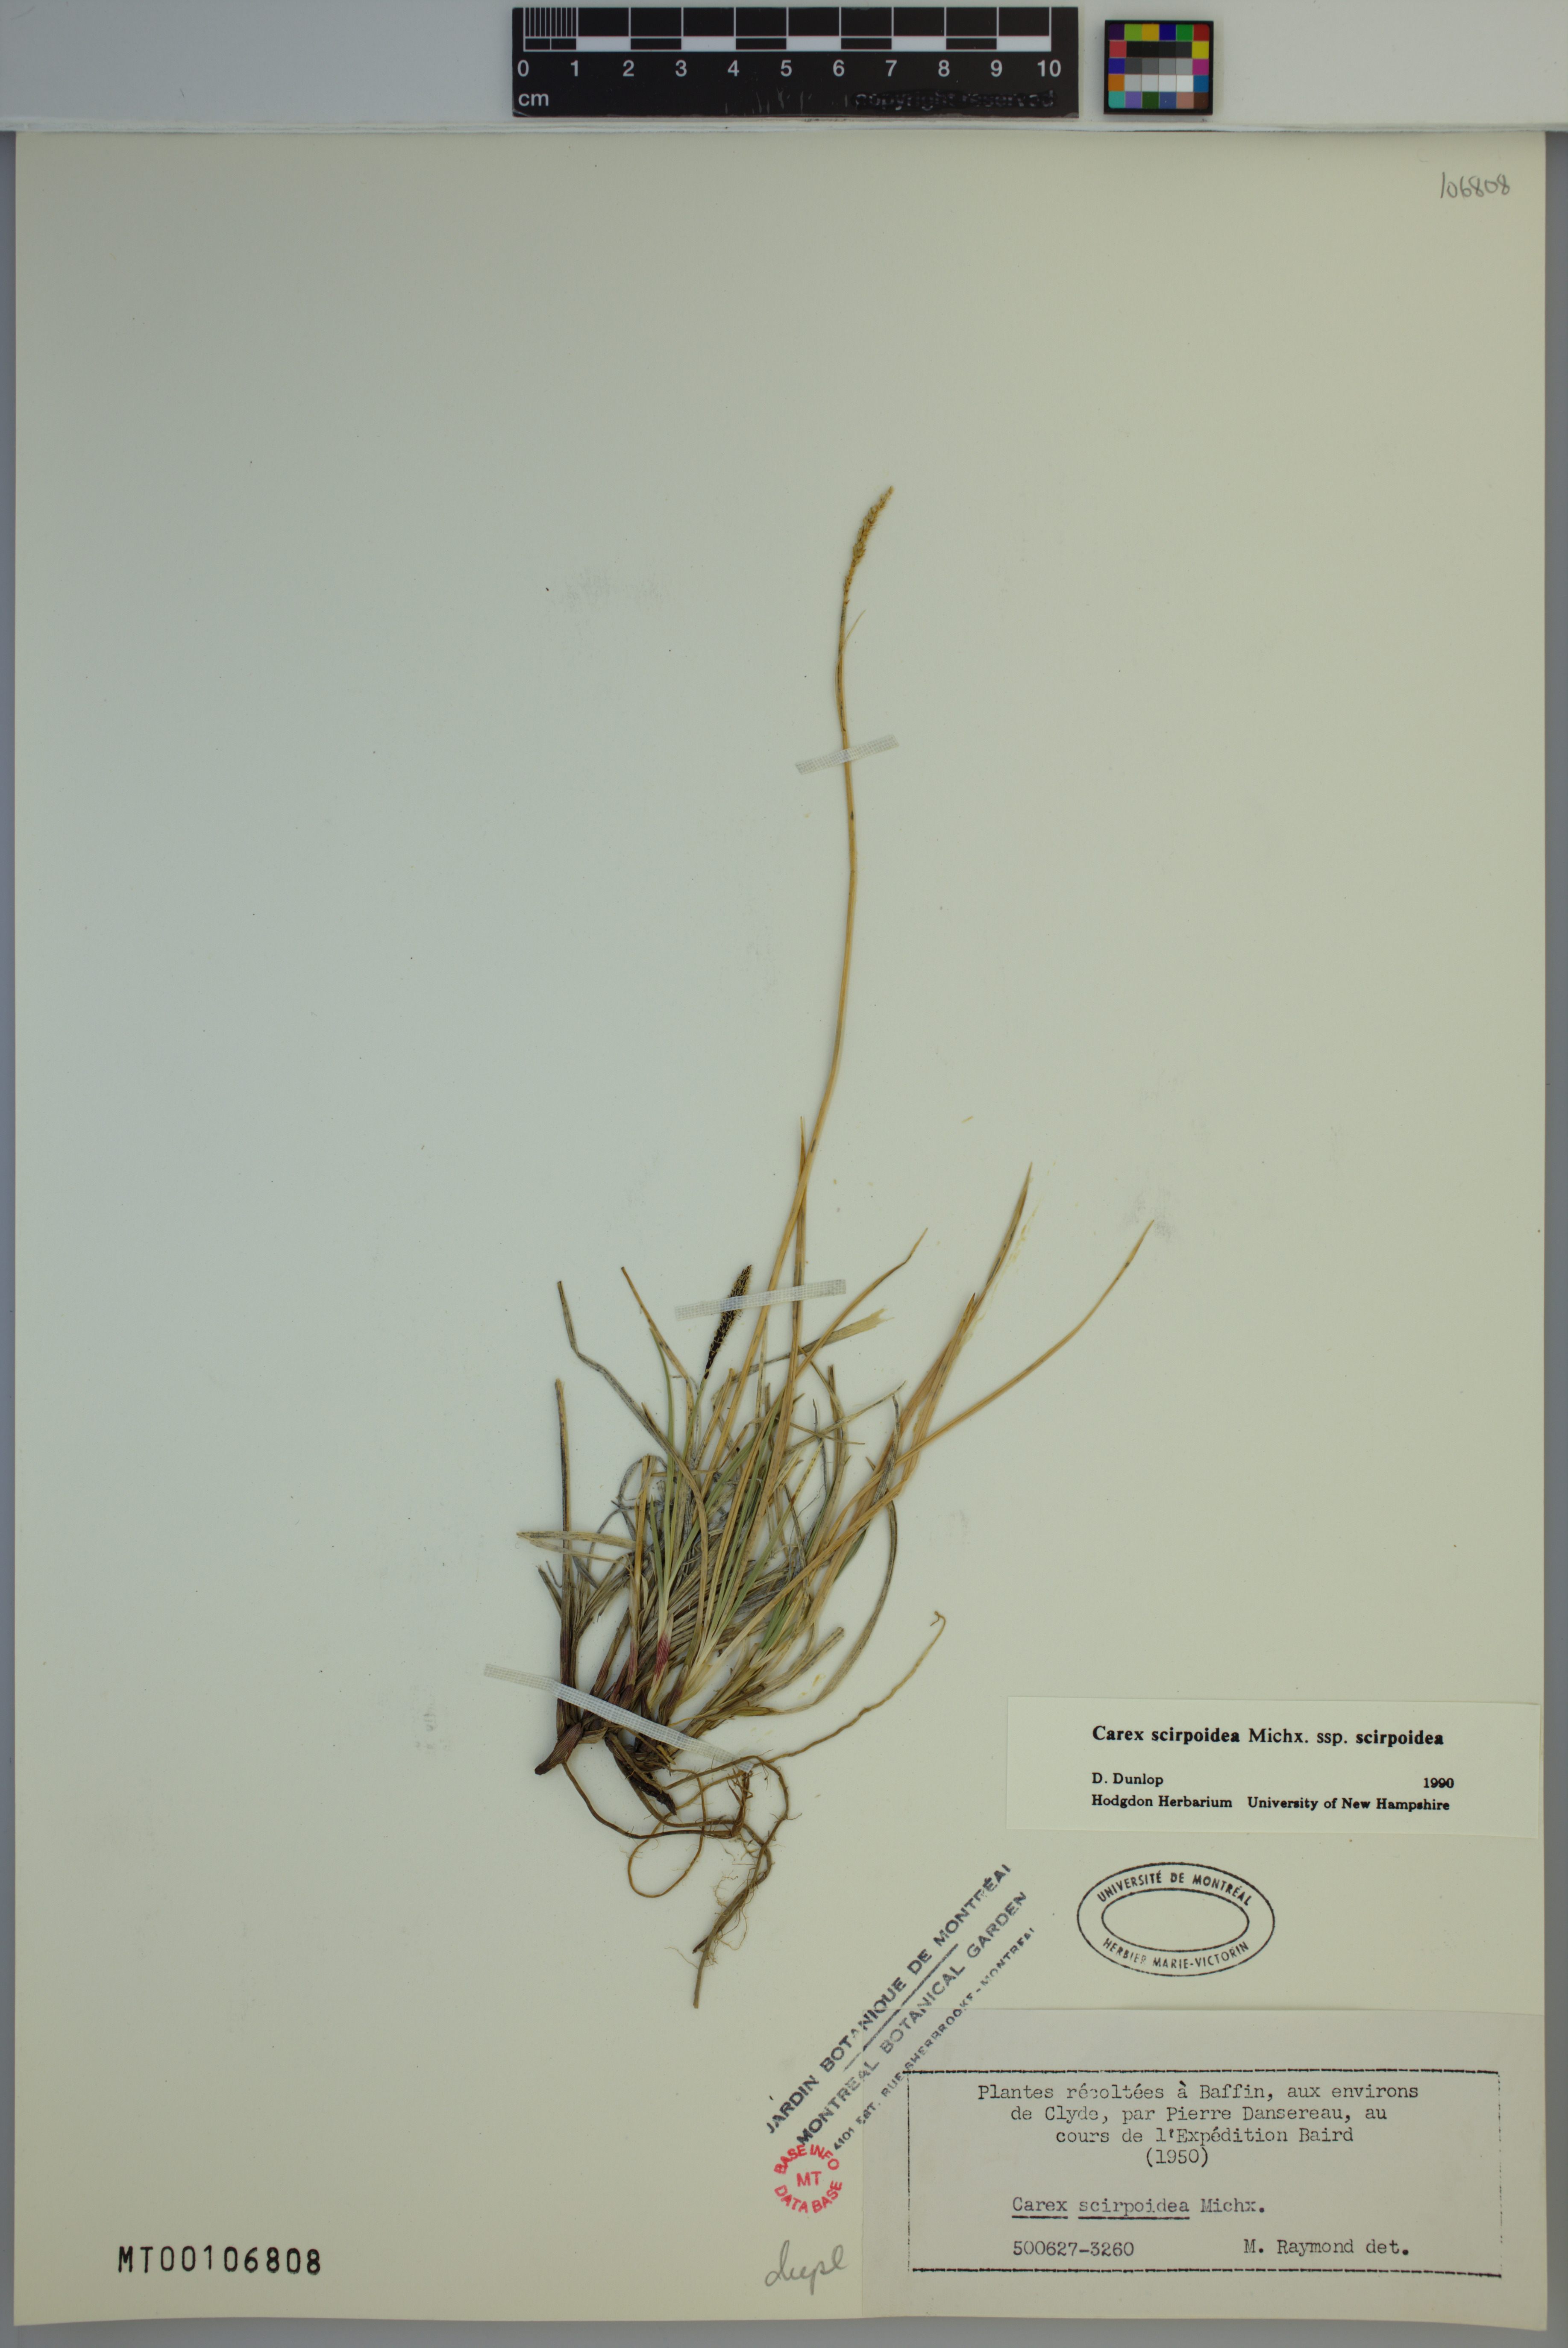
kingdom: Plantae
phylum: Tracheophyta
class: Liliopsida
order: Poales
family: Cyperaceae
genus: Carex
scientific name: Carex scirpoidea
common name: Canada single-spike sedge
